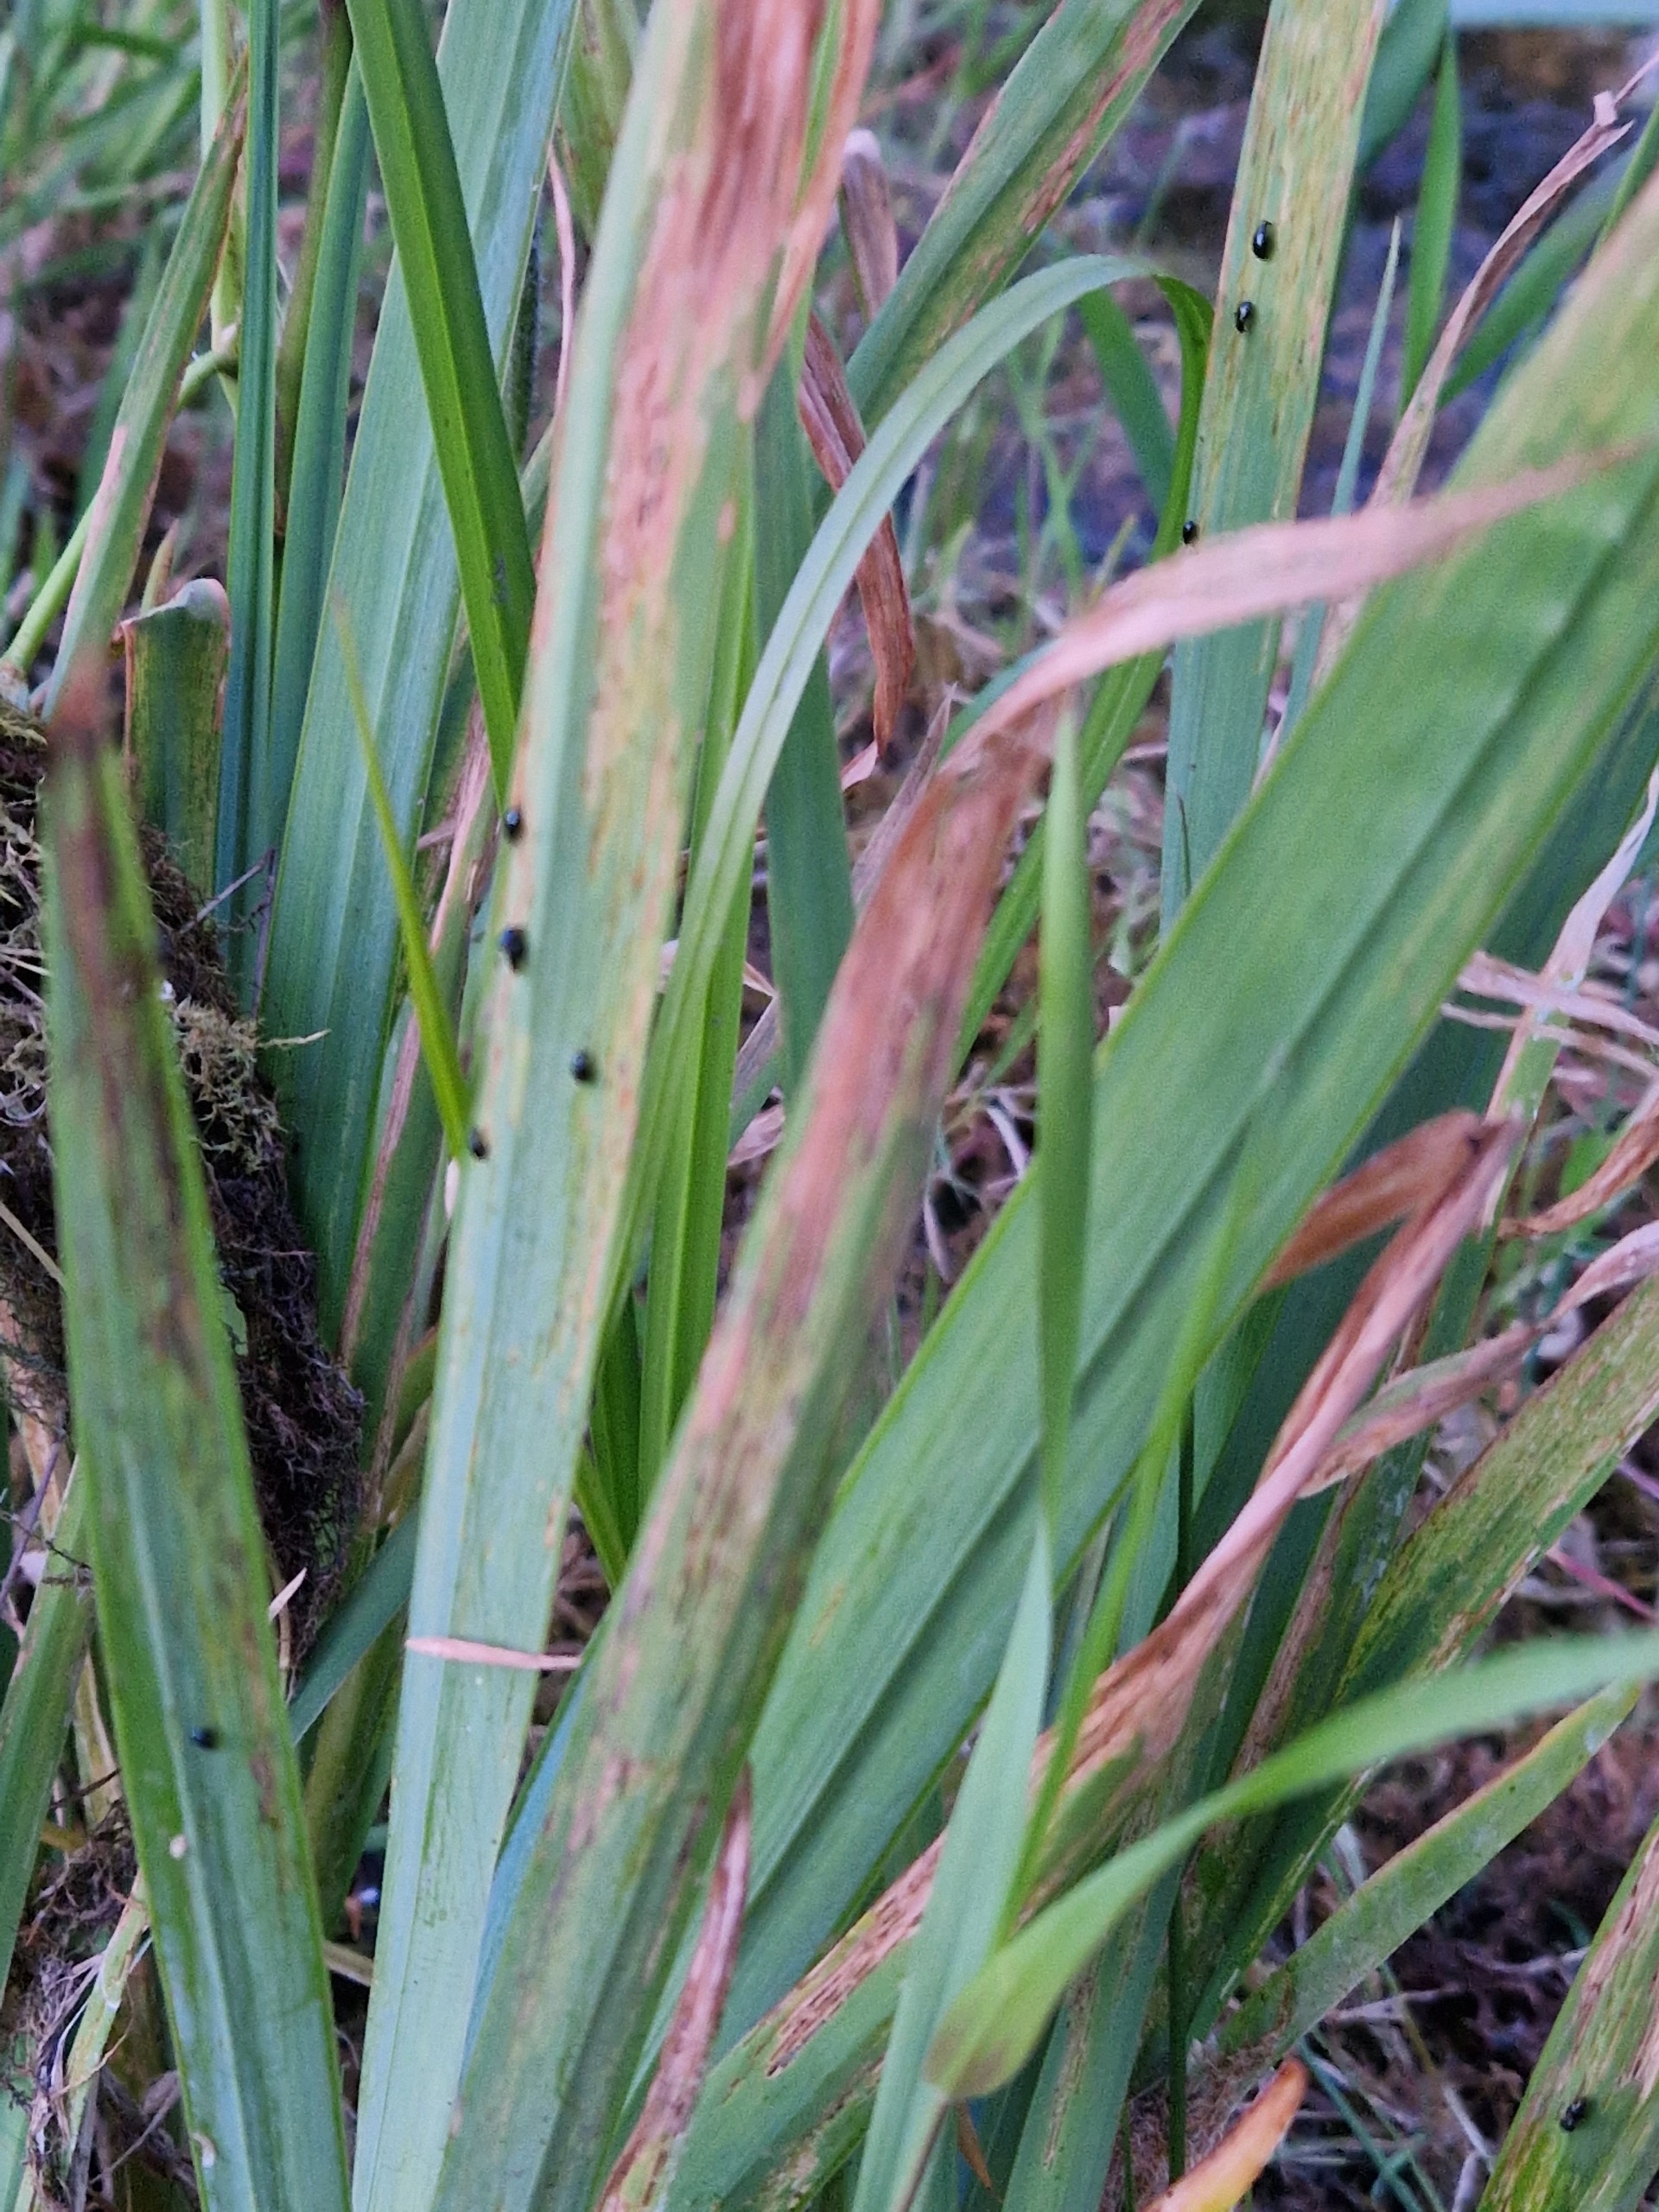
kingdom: Plantae
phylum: Tracheophyta
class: Liliopsida
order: Asparagales
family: Iridaceae
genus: Iris
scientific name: Iris pseudacorus
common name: Gul iris
